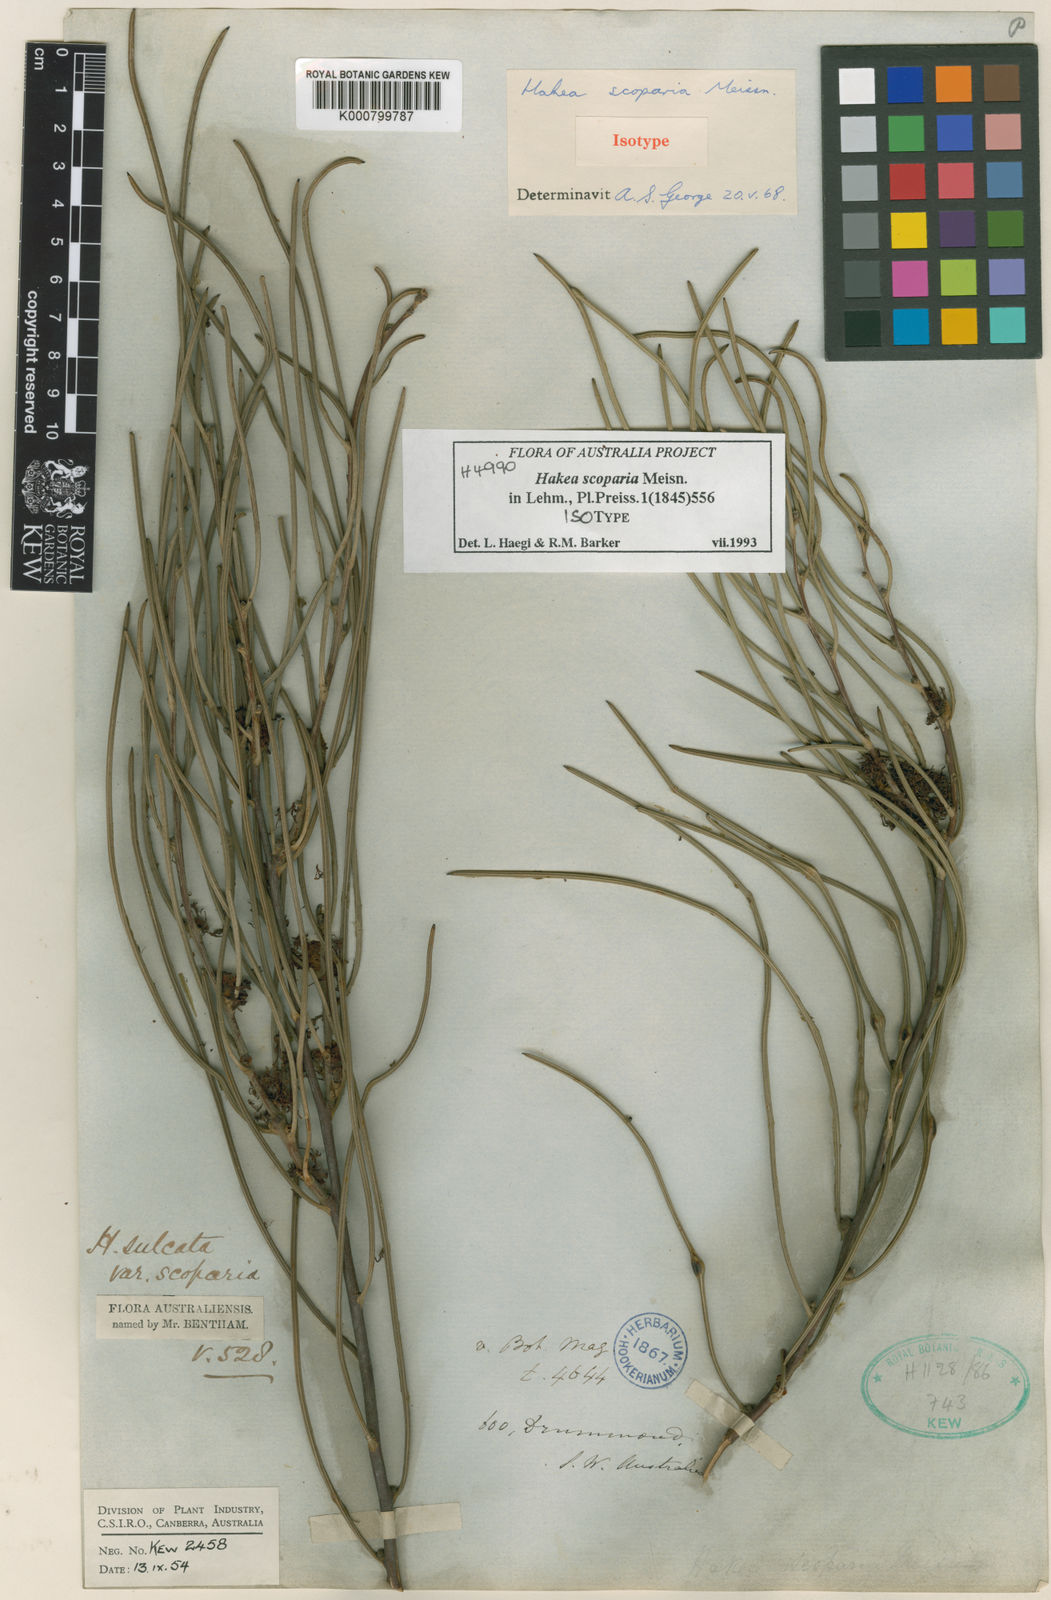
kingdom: Plantae
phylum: Tracheophyta
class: Magnoliopsida
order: Proteales
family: Proteaceae
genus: Hakea
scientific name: Hakea scoparia
